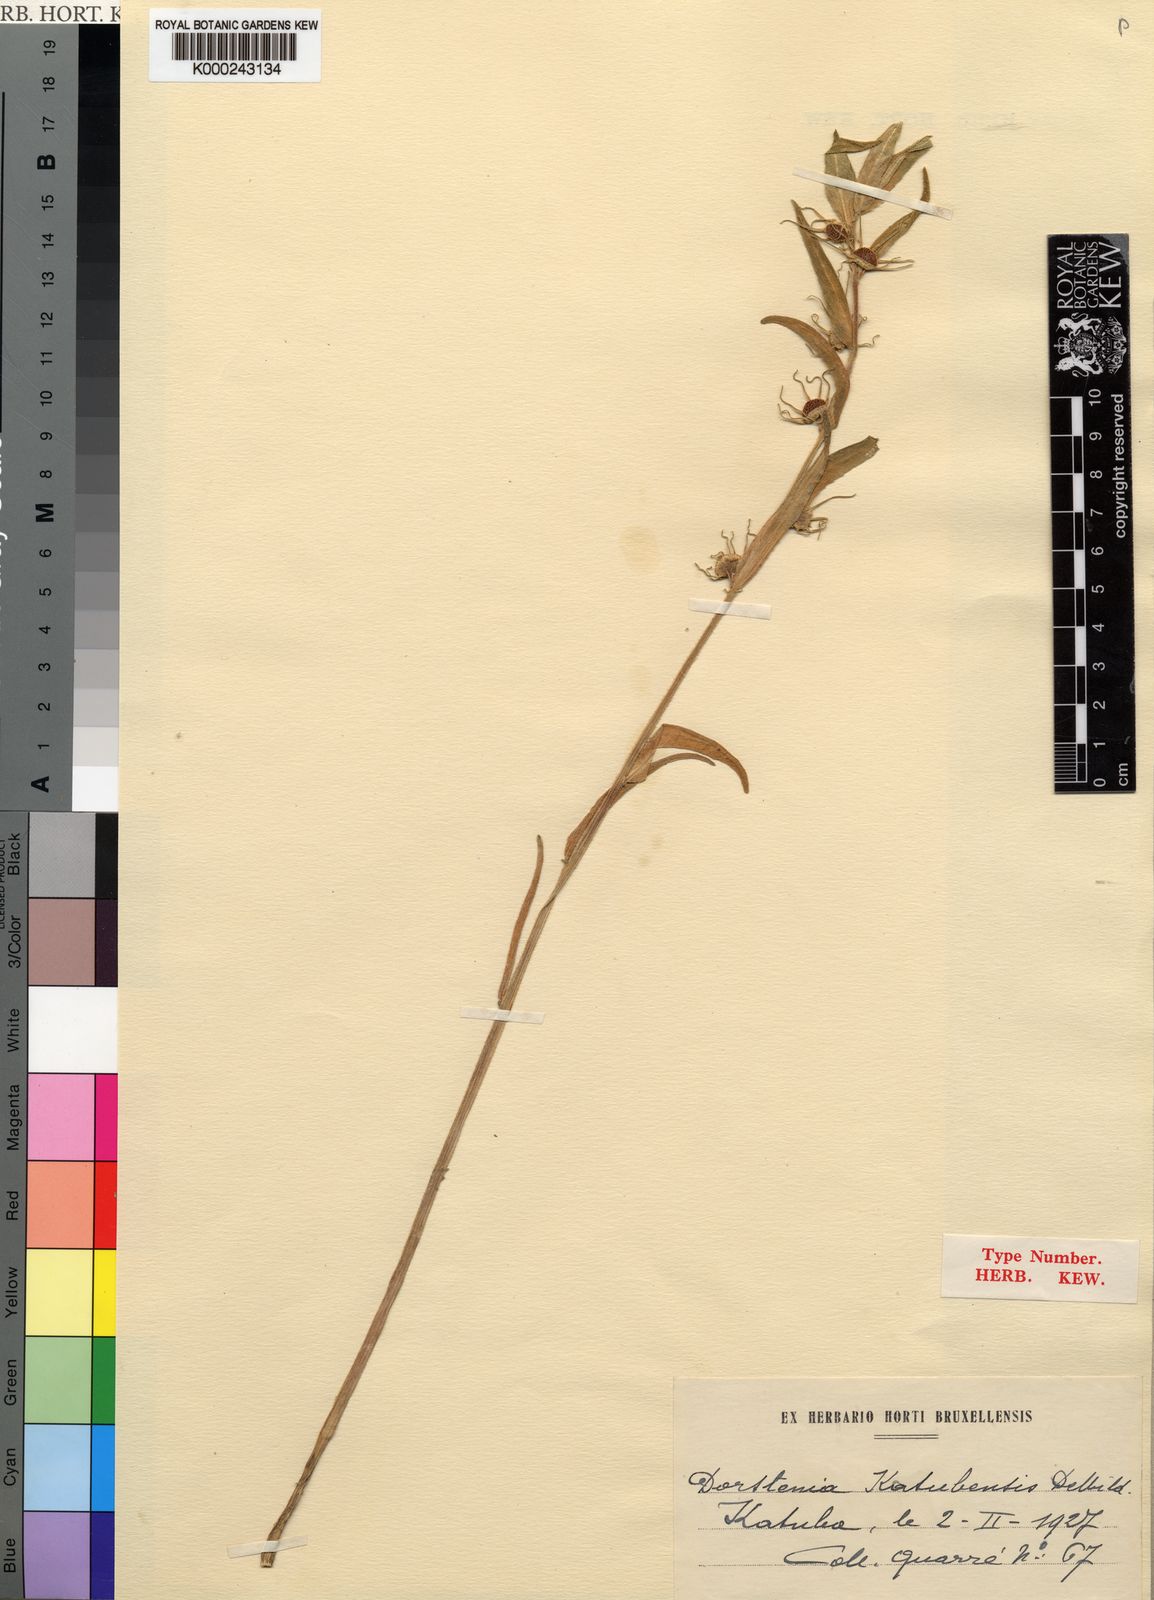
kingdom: Plantae
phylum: Tracheophyta
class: Magnoliopsida
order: Rosales
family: Moraceae
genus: Dorstenia
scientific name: Dorstenia drakena
